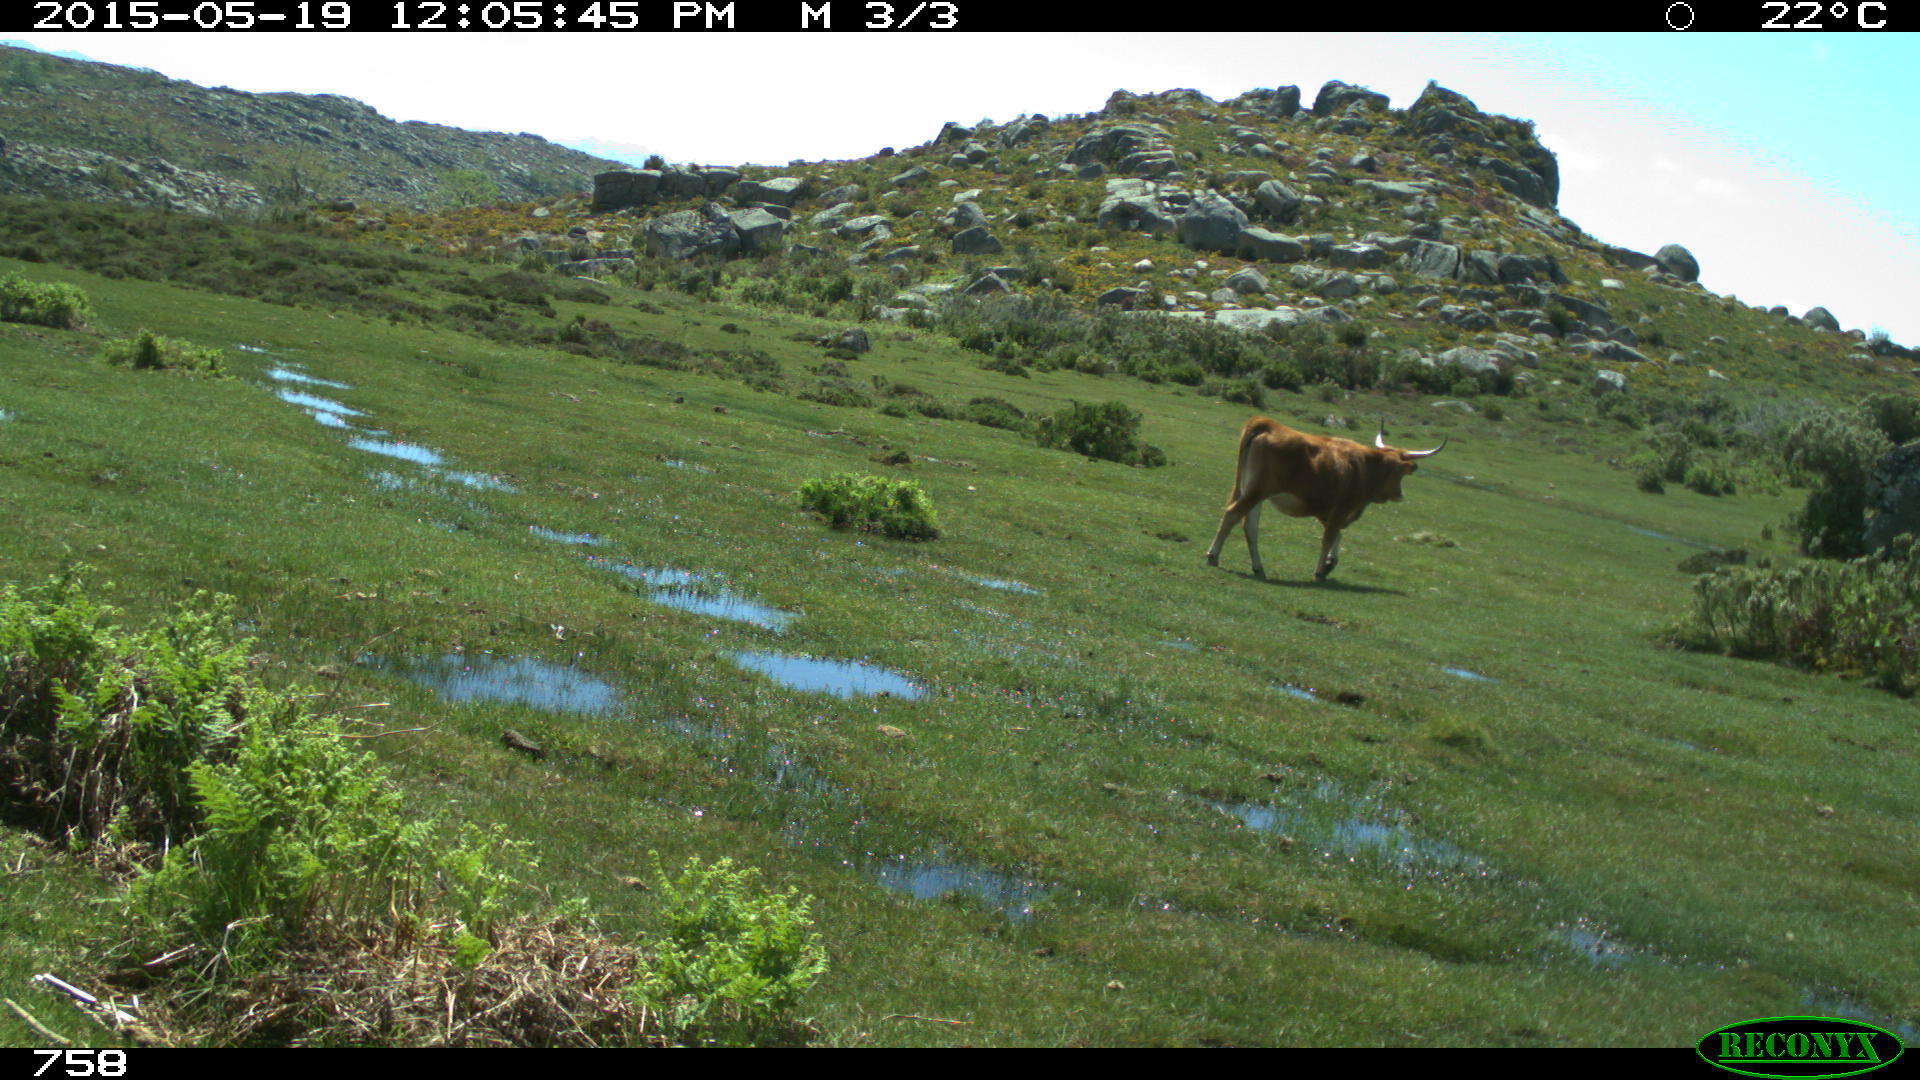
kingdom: Animalia
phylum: Chordata
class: Mammalia
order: Artiodactyla
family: Bovidae
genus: Bos
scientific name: Bos taurus
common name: Domesticated cattle
